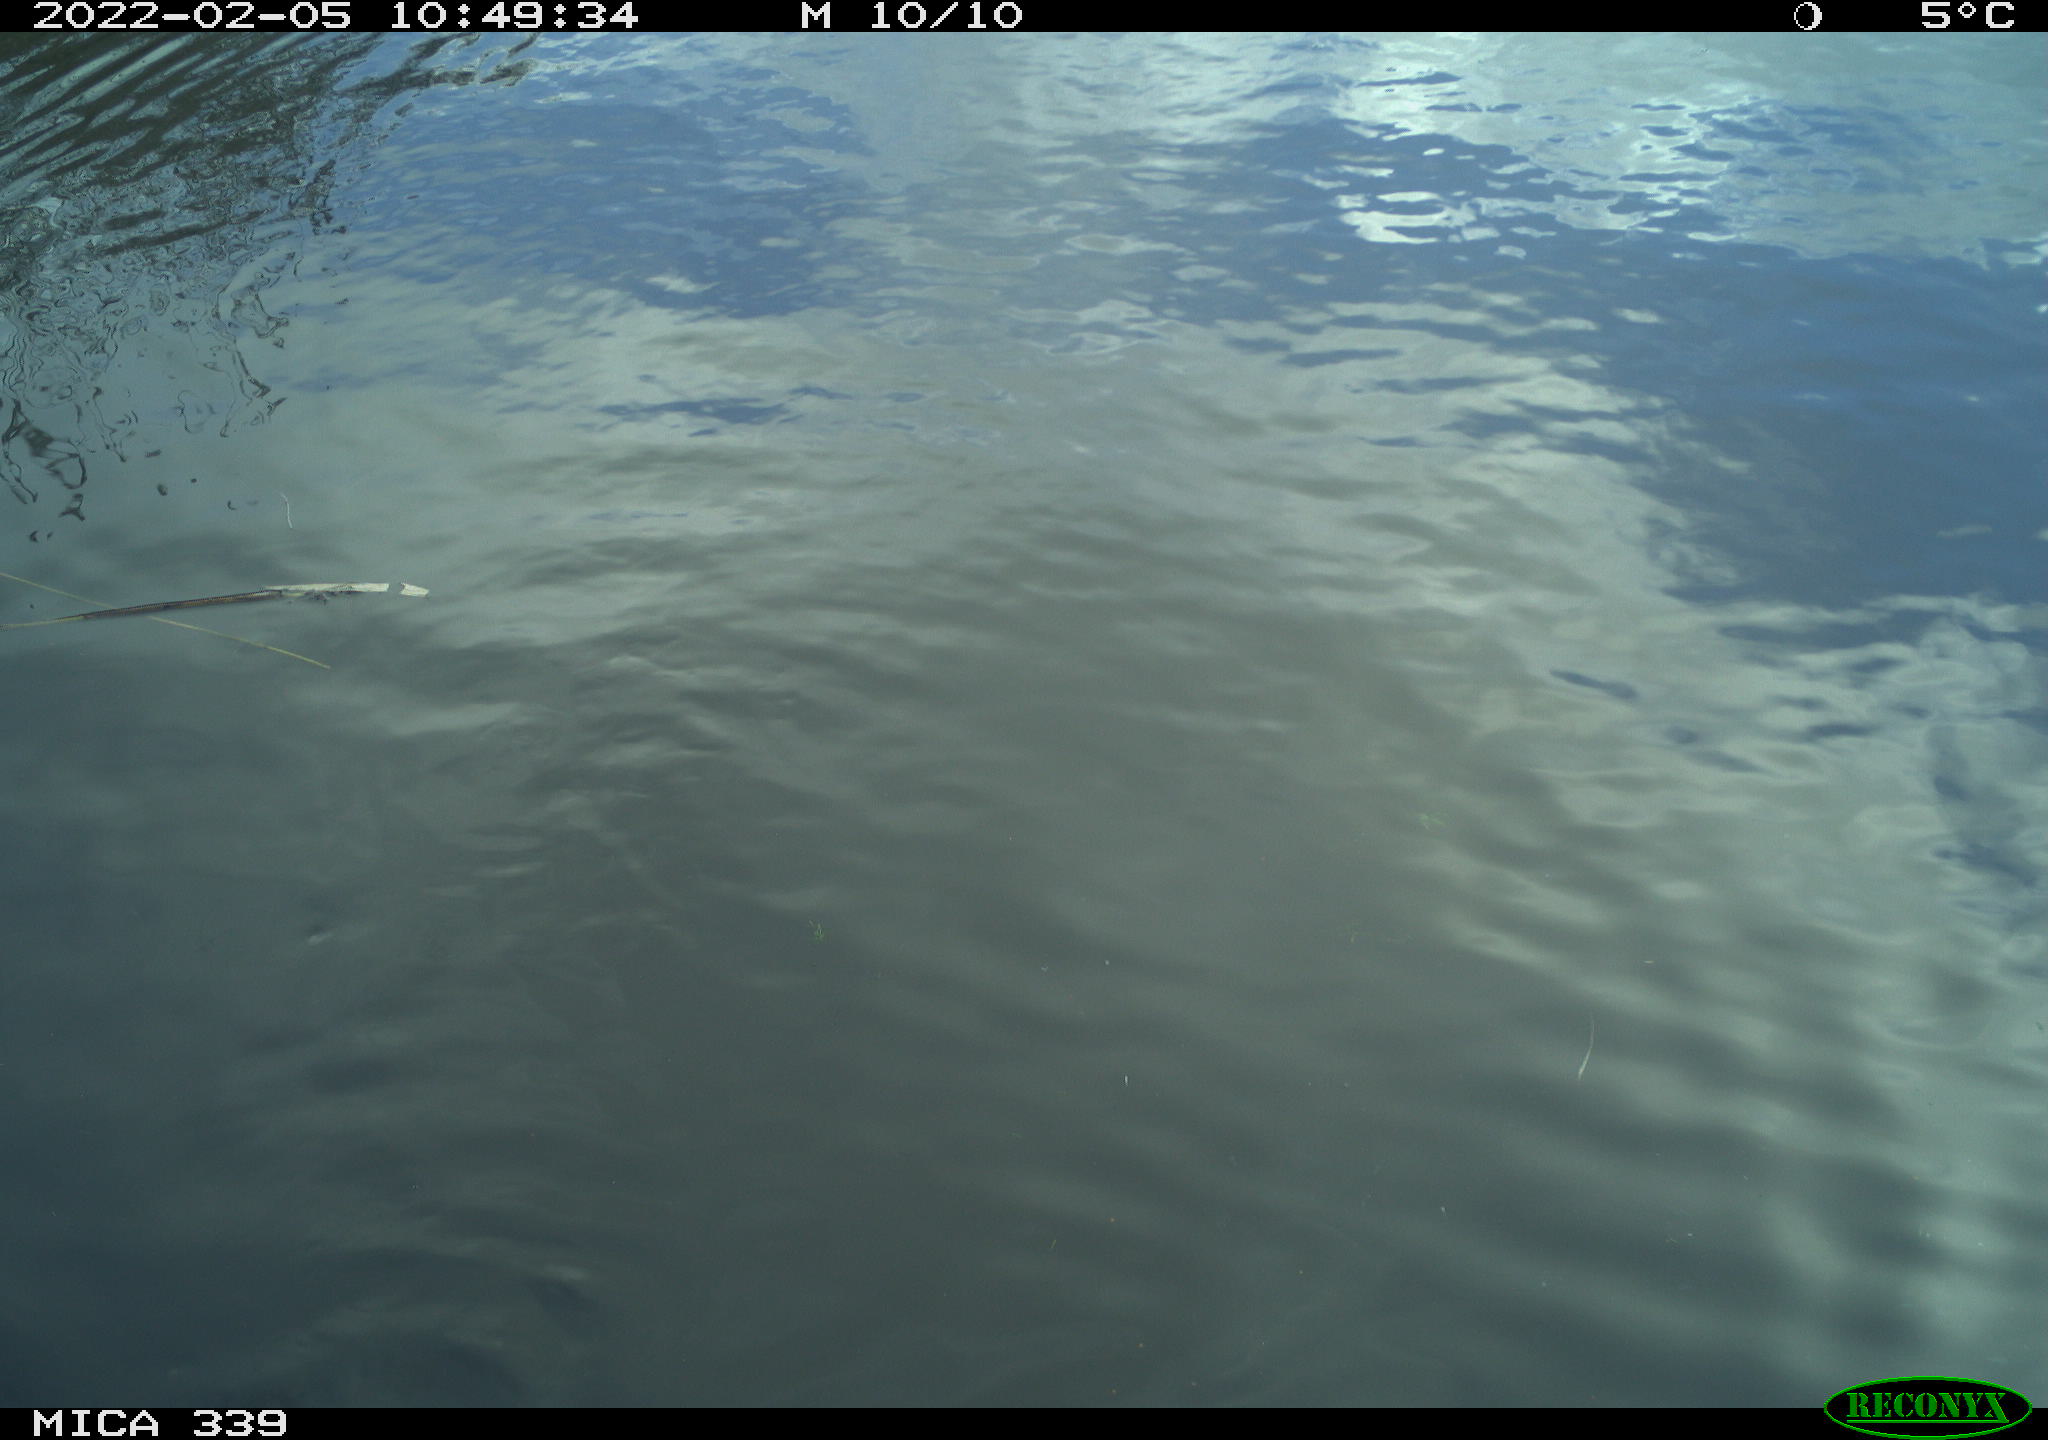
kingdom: Animalia
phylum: Chordata
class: Aves
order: Suliformes
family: Phalacrocoracidae
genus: Phalacrocorax
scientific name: Phalacrocorax carbo
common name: Great cormorant
